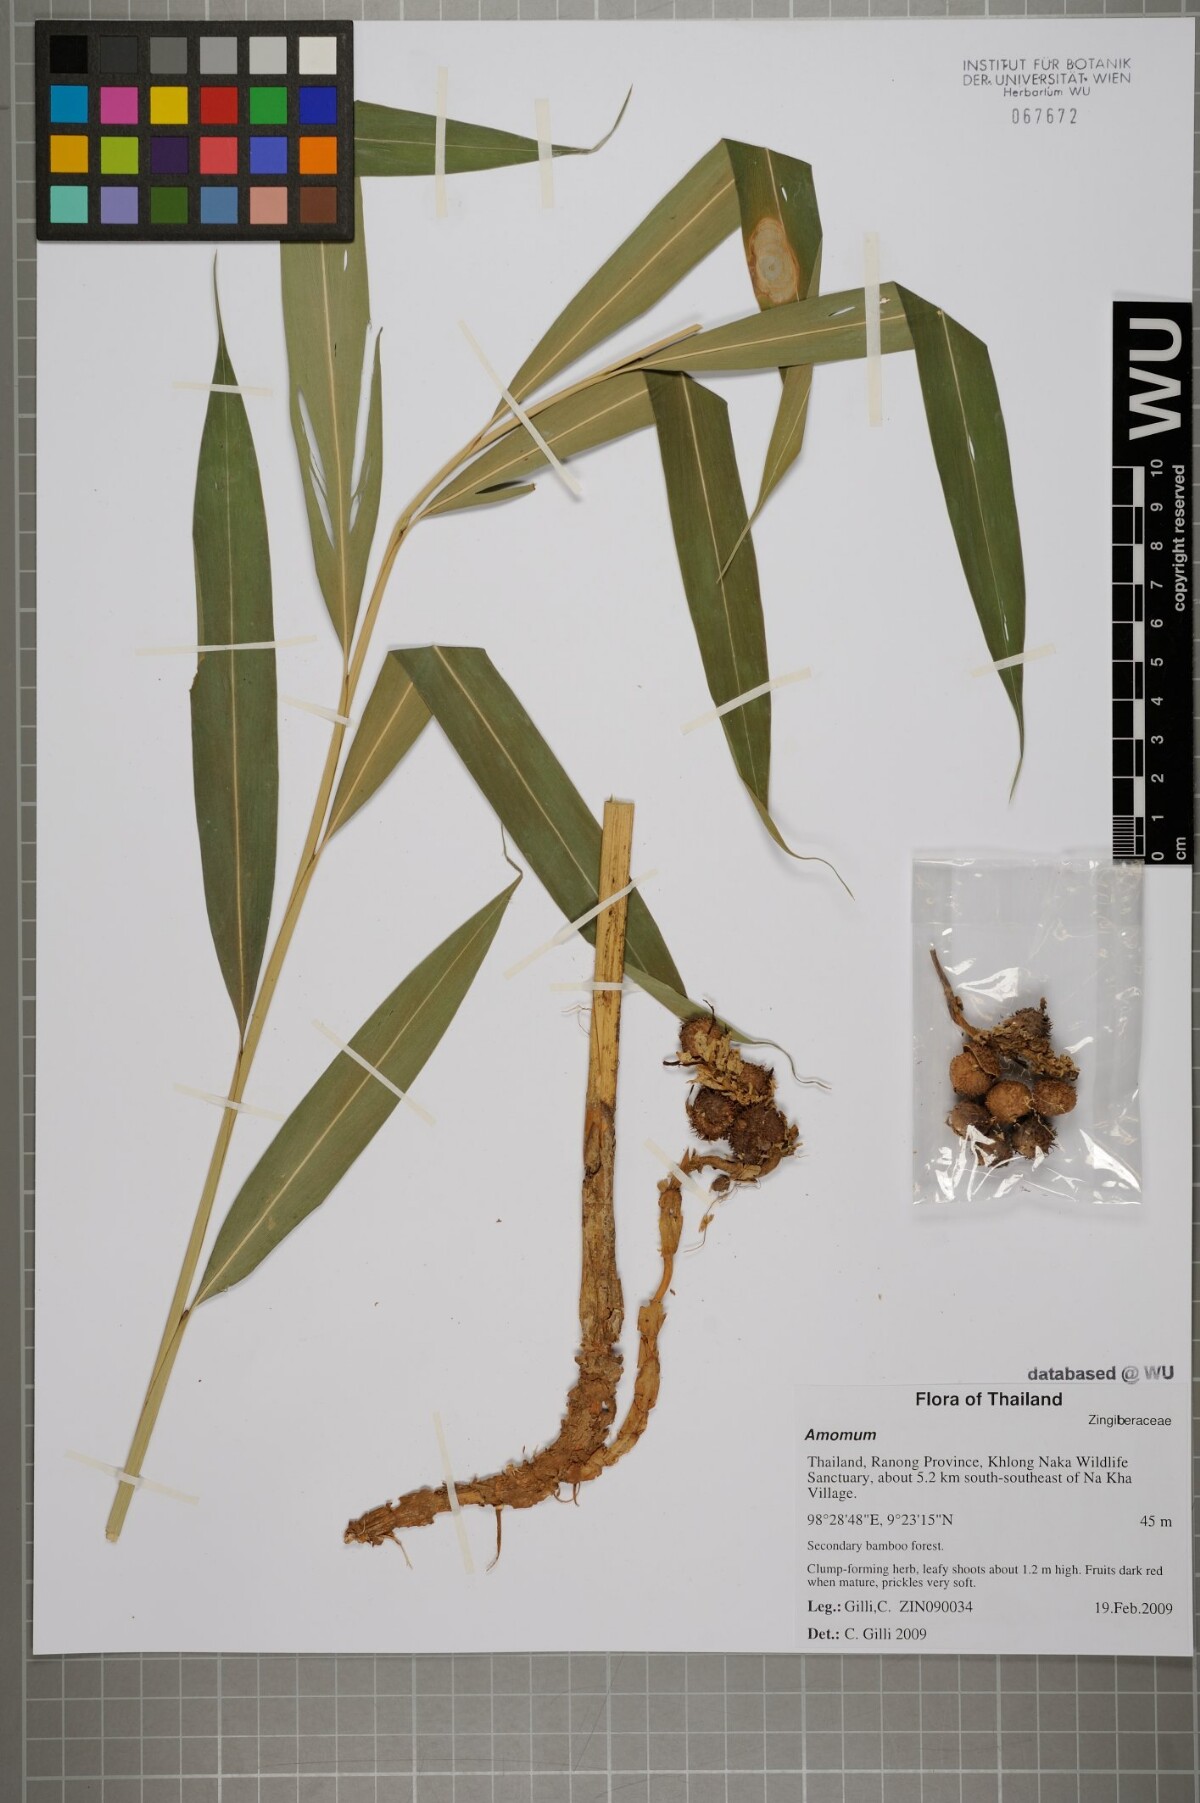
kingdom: Plantae
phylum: Tracheophyta
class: Liliopsida
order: Zingiberales
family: Zingiberaceae
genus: Amomum
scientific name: Amomum
